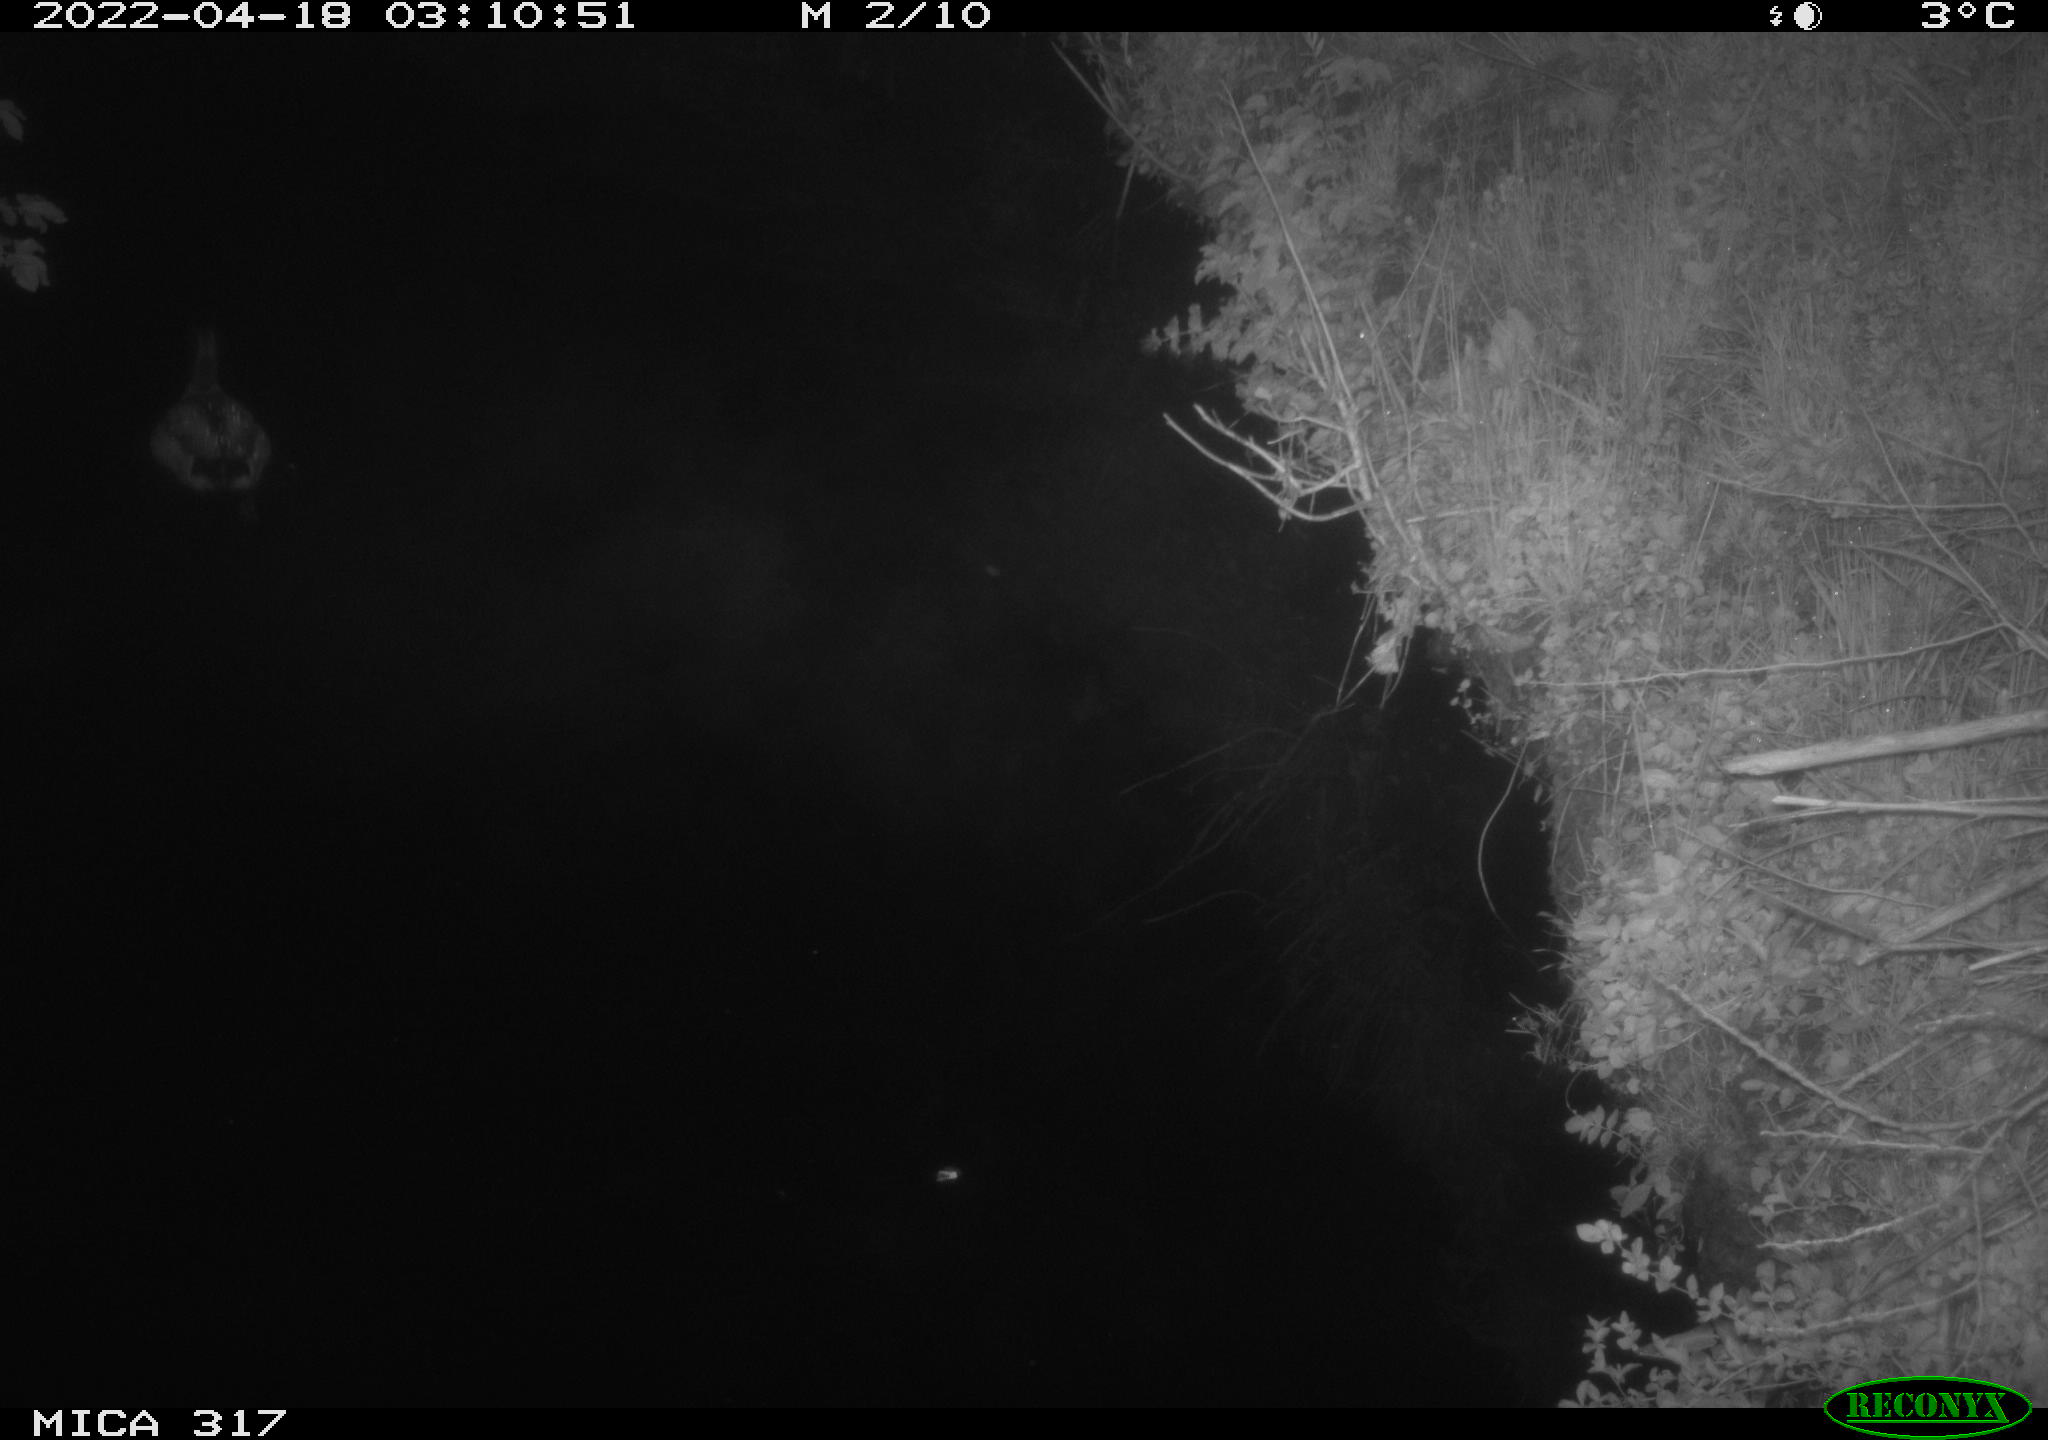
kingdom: Animalia
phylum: Chordata
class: Aves
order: Anseriformes
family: Anatidae
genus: Anas
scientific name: Anas platyrhynchos
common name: Mallard
